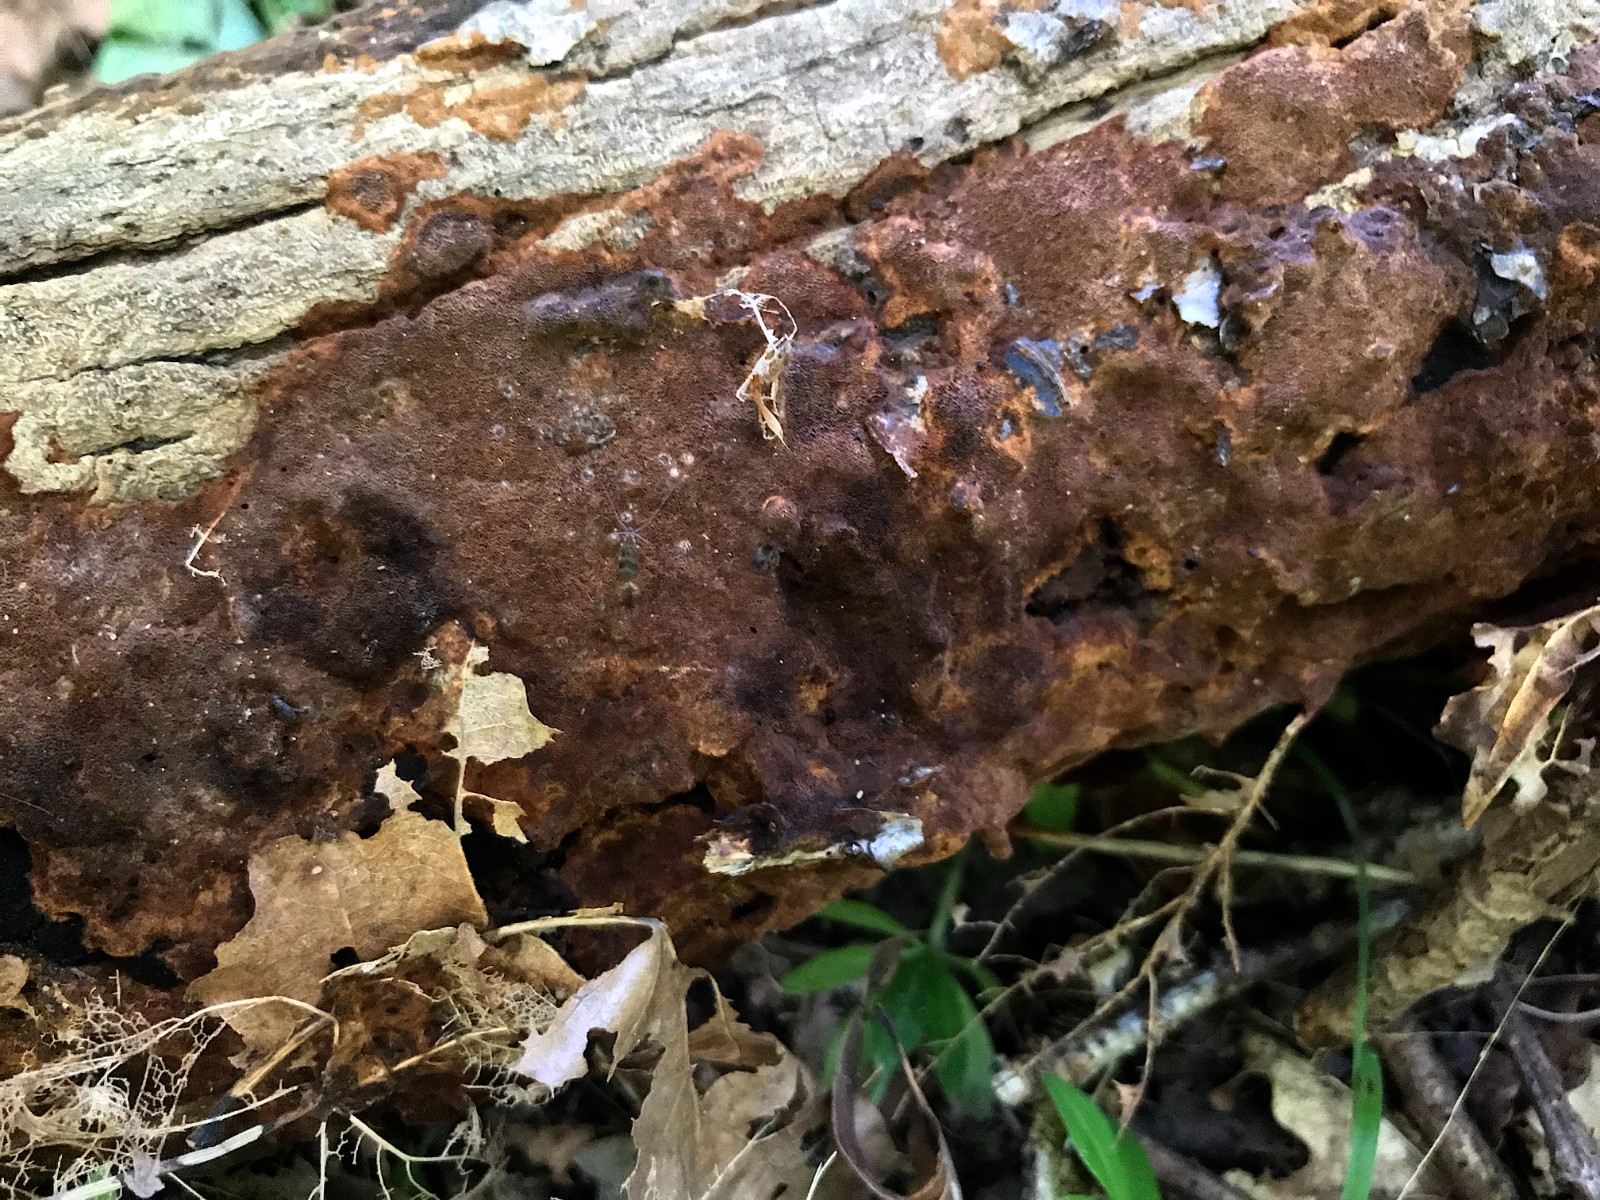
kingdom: Fungi
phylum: Basidiomycota
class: Agaricomycetes
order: Hymenochaetales
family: Hymenochaetaceae
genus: Fuscoporia
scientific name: Fuscoporia ferrea
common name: skorpe-ildporesvamp
